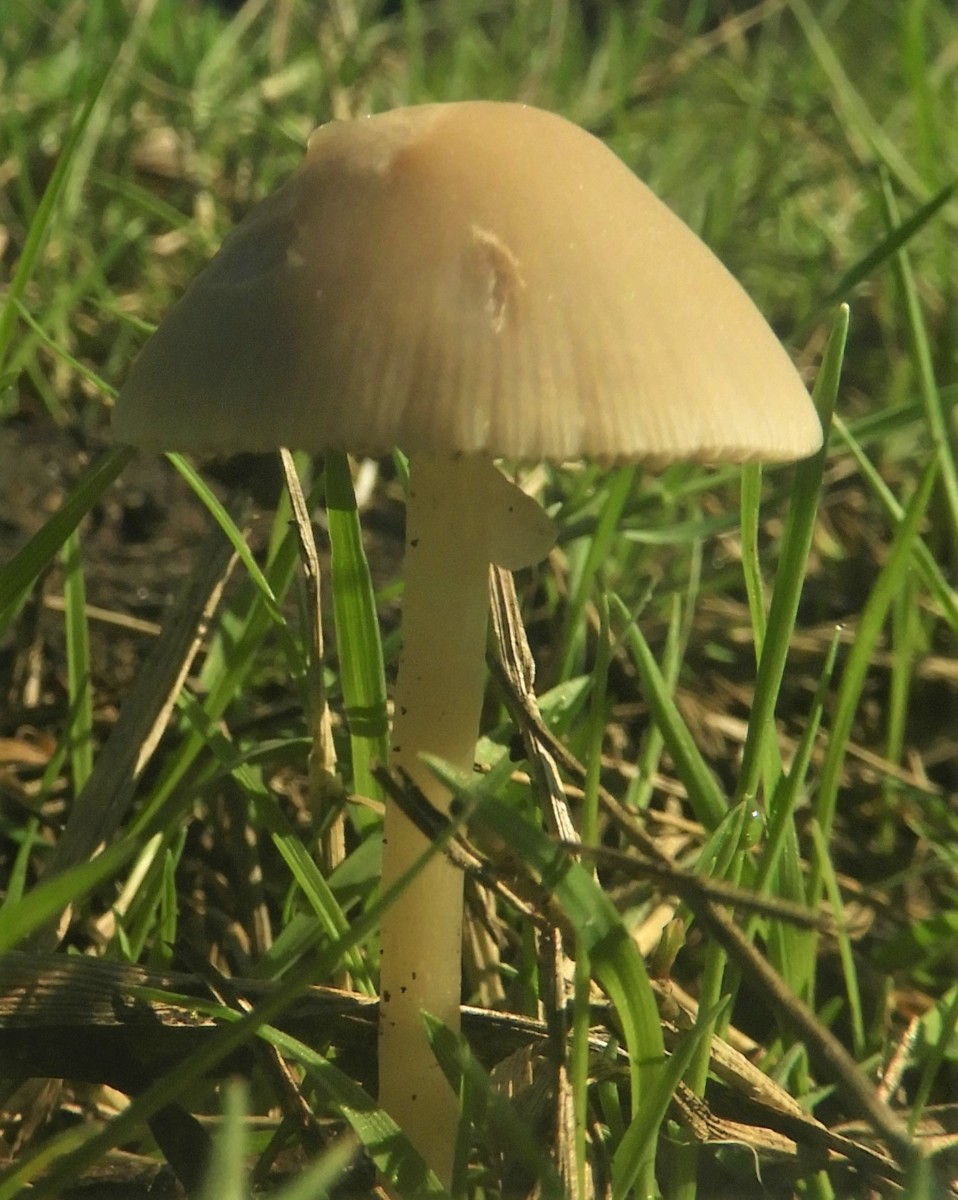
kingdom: Fungi
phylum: Basidiomycota
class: Agaricomycetes
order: Agaricales
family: Psathyrellaceae
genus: Candolleomyces
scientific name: Candolleomyces candolleanus
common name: Candolles mørkhat
